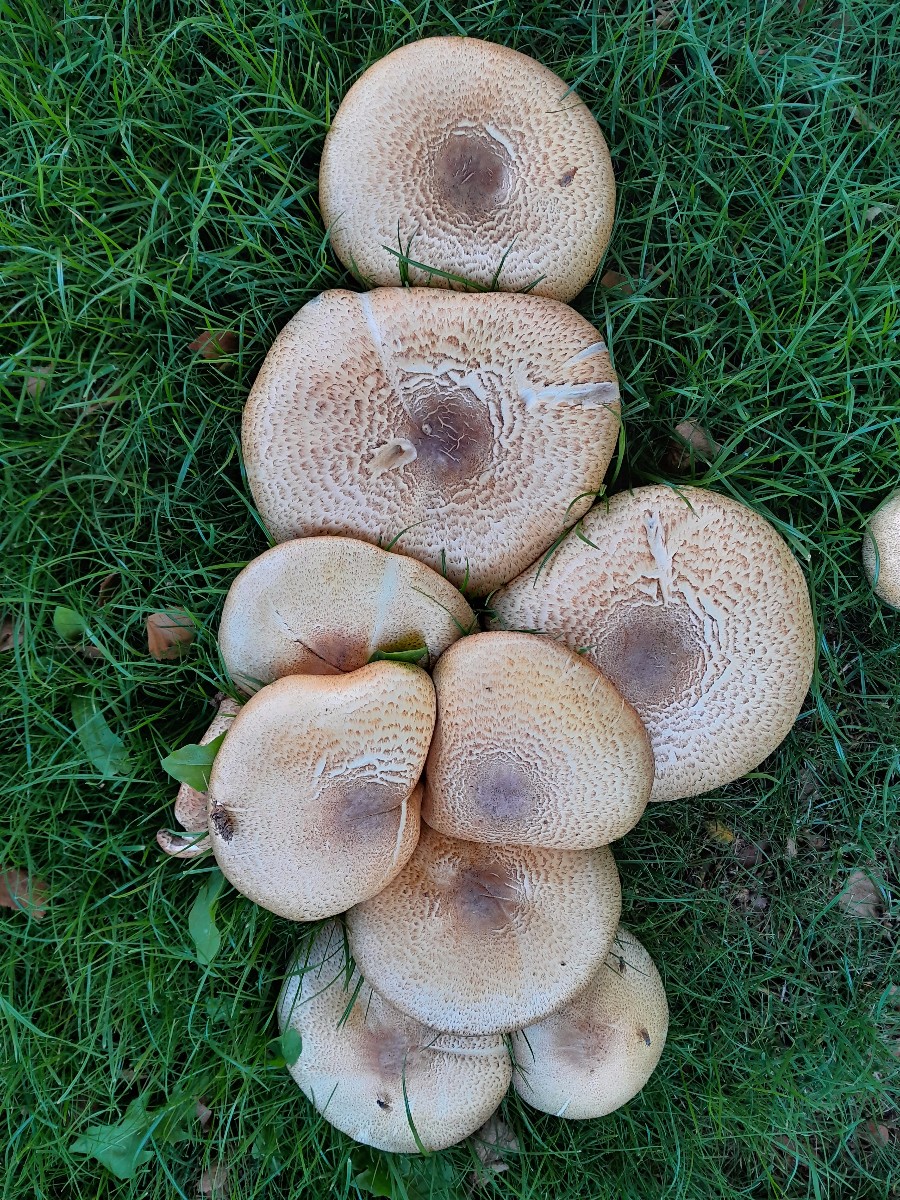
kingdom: Fungi
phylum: Basidiomycota
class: Agaricomycetes
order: Agaricales
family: Agaricaceae
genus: Agaricus
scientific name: Agaricus augustus
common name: prægtig champignon
